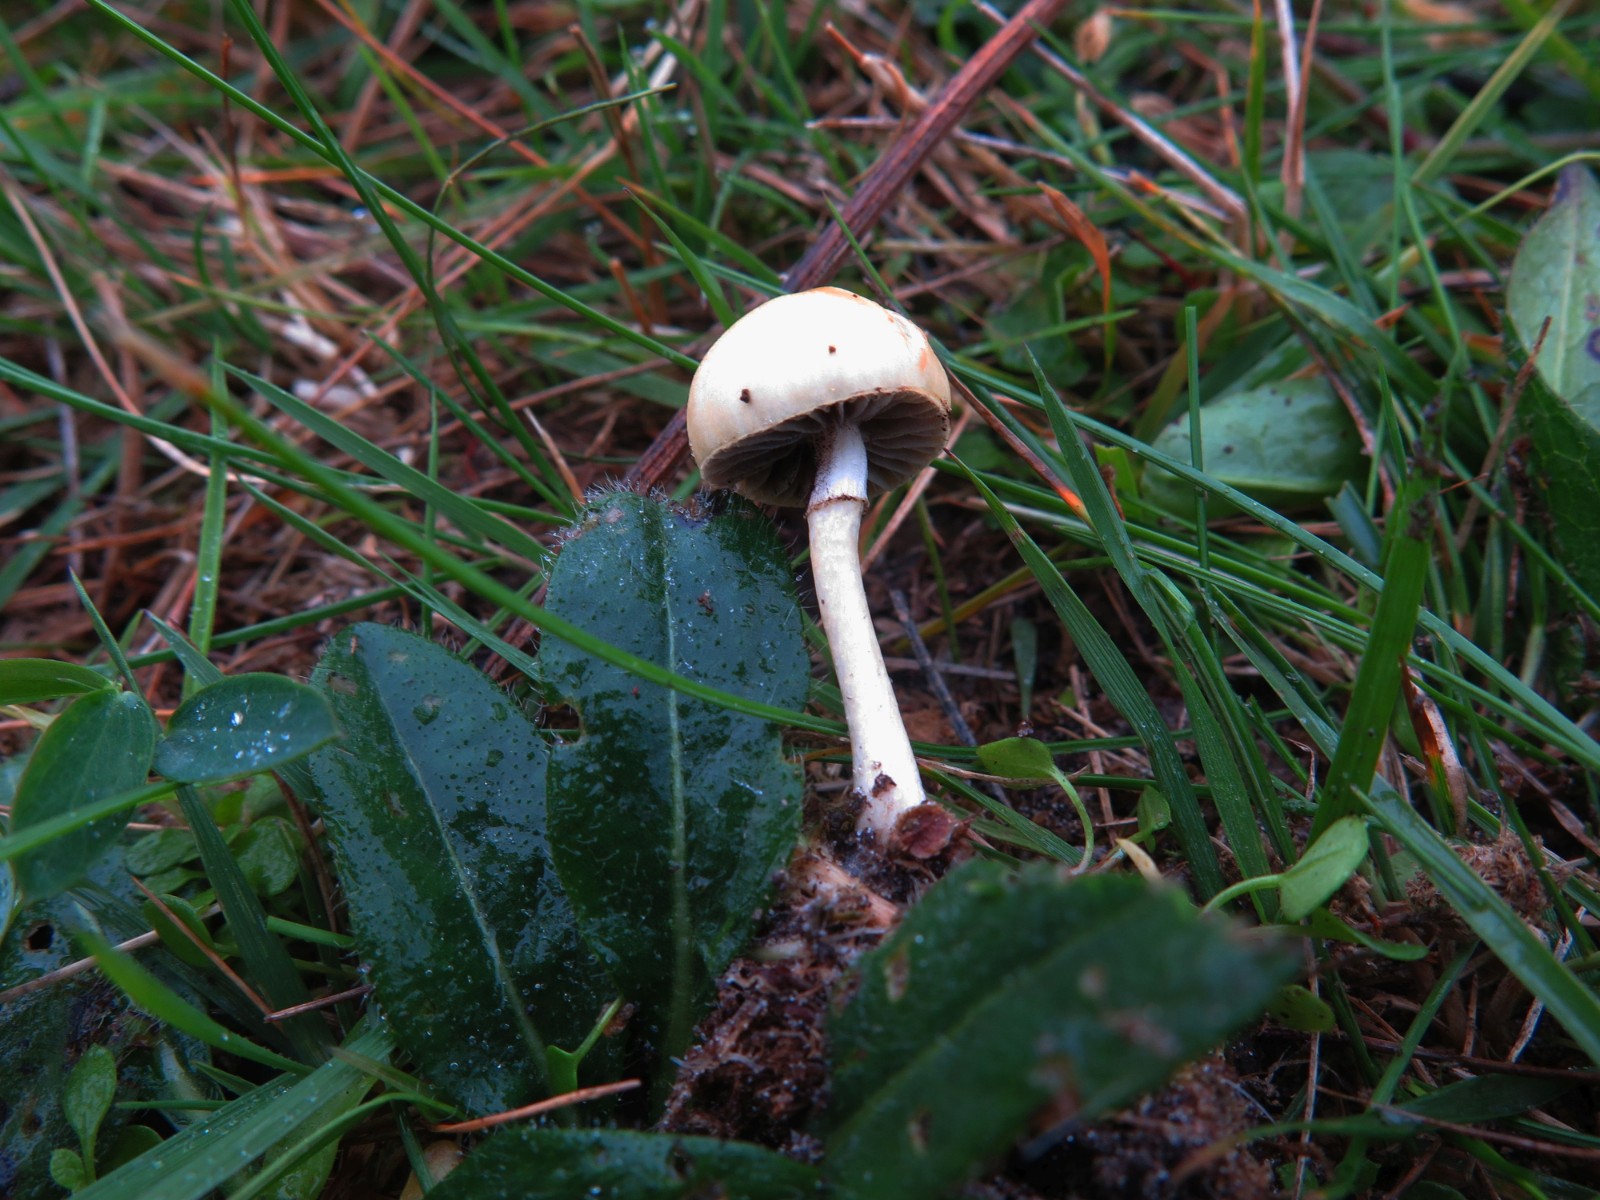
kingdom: Fungi
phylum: Basidiomycota
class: Agaricomycetes
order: Agaricales
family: Strophariaceae
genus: Protostropharia
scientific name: Protostropharia semiglobata
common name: halvkugleformet bredblad
